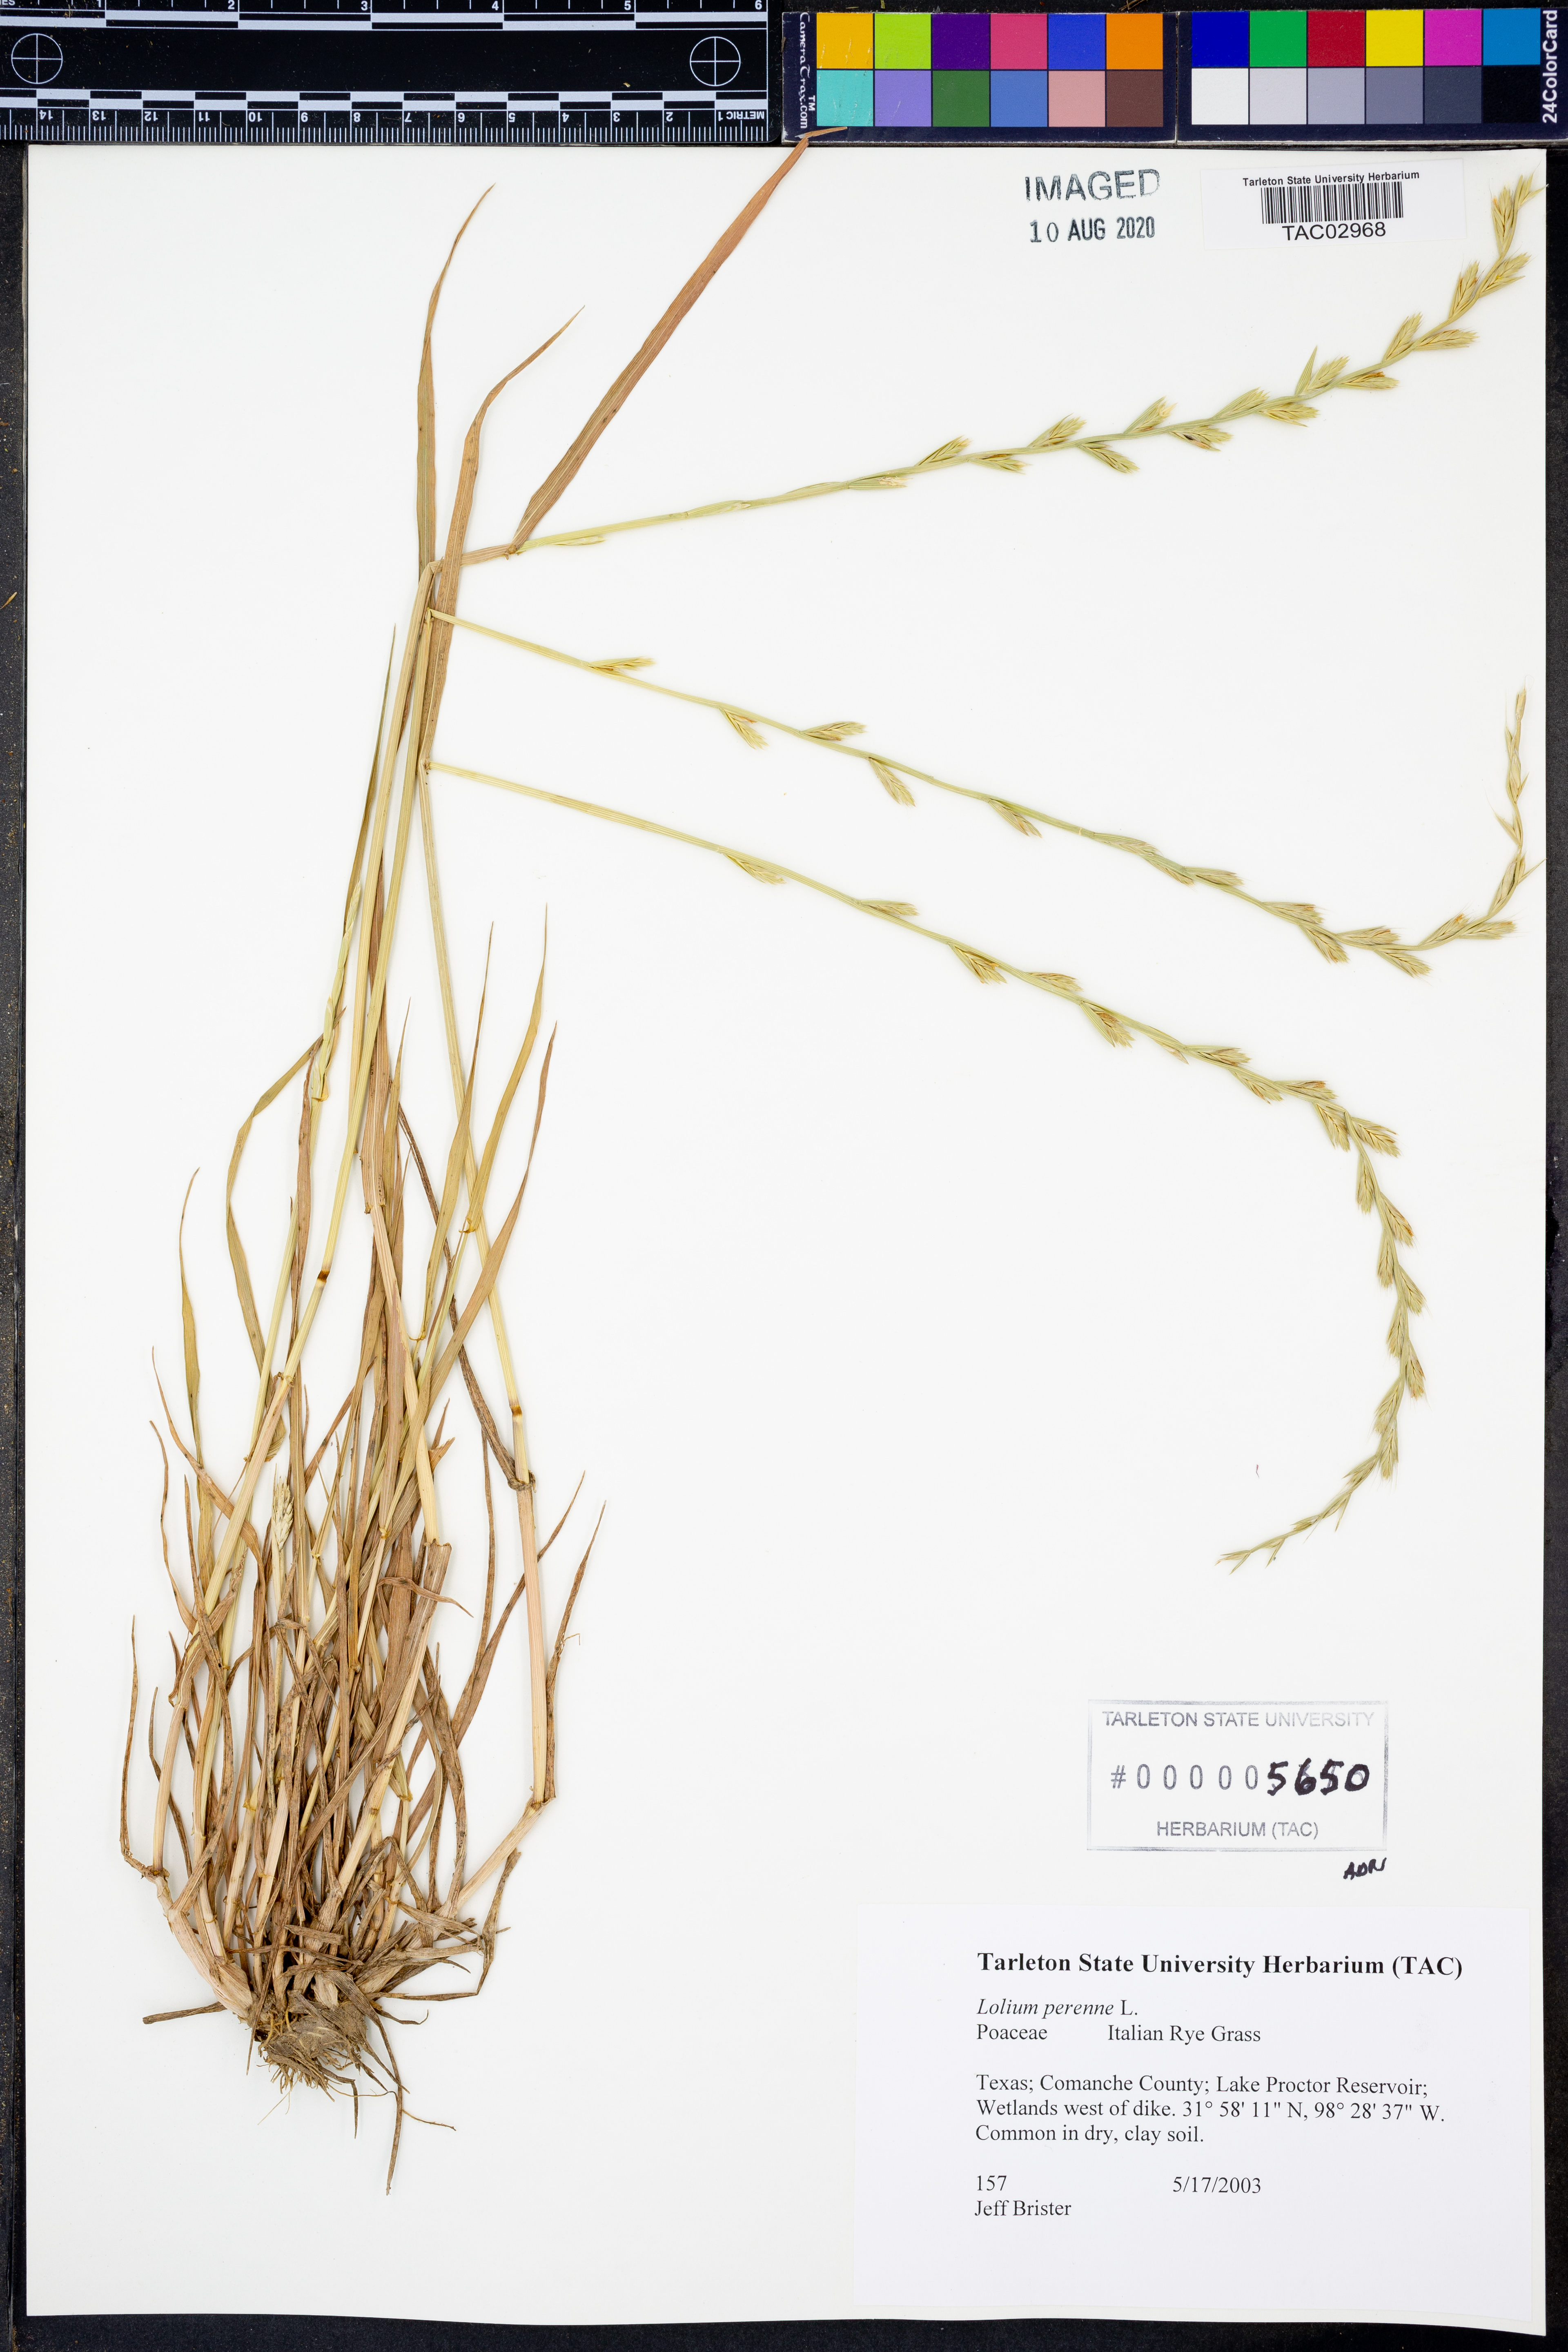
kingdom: Plantae
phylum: Tracheophyta
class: Liliopsida
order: Poales
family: Poaceae
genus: Lolium
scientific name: Lolium perenne
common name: Perennial ryegrass
